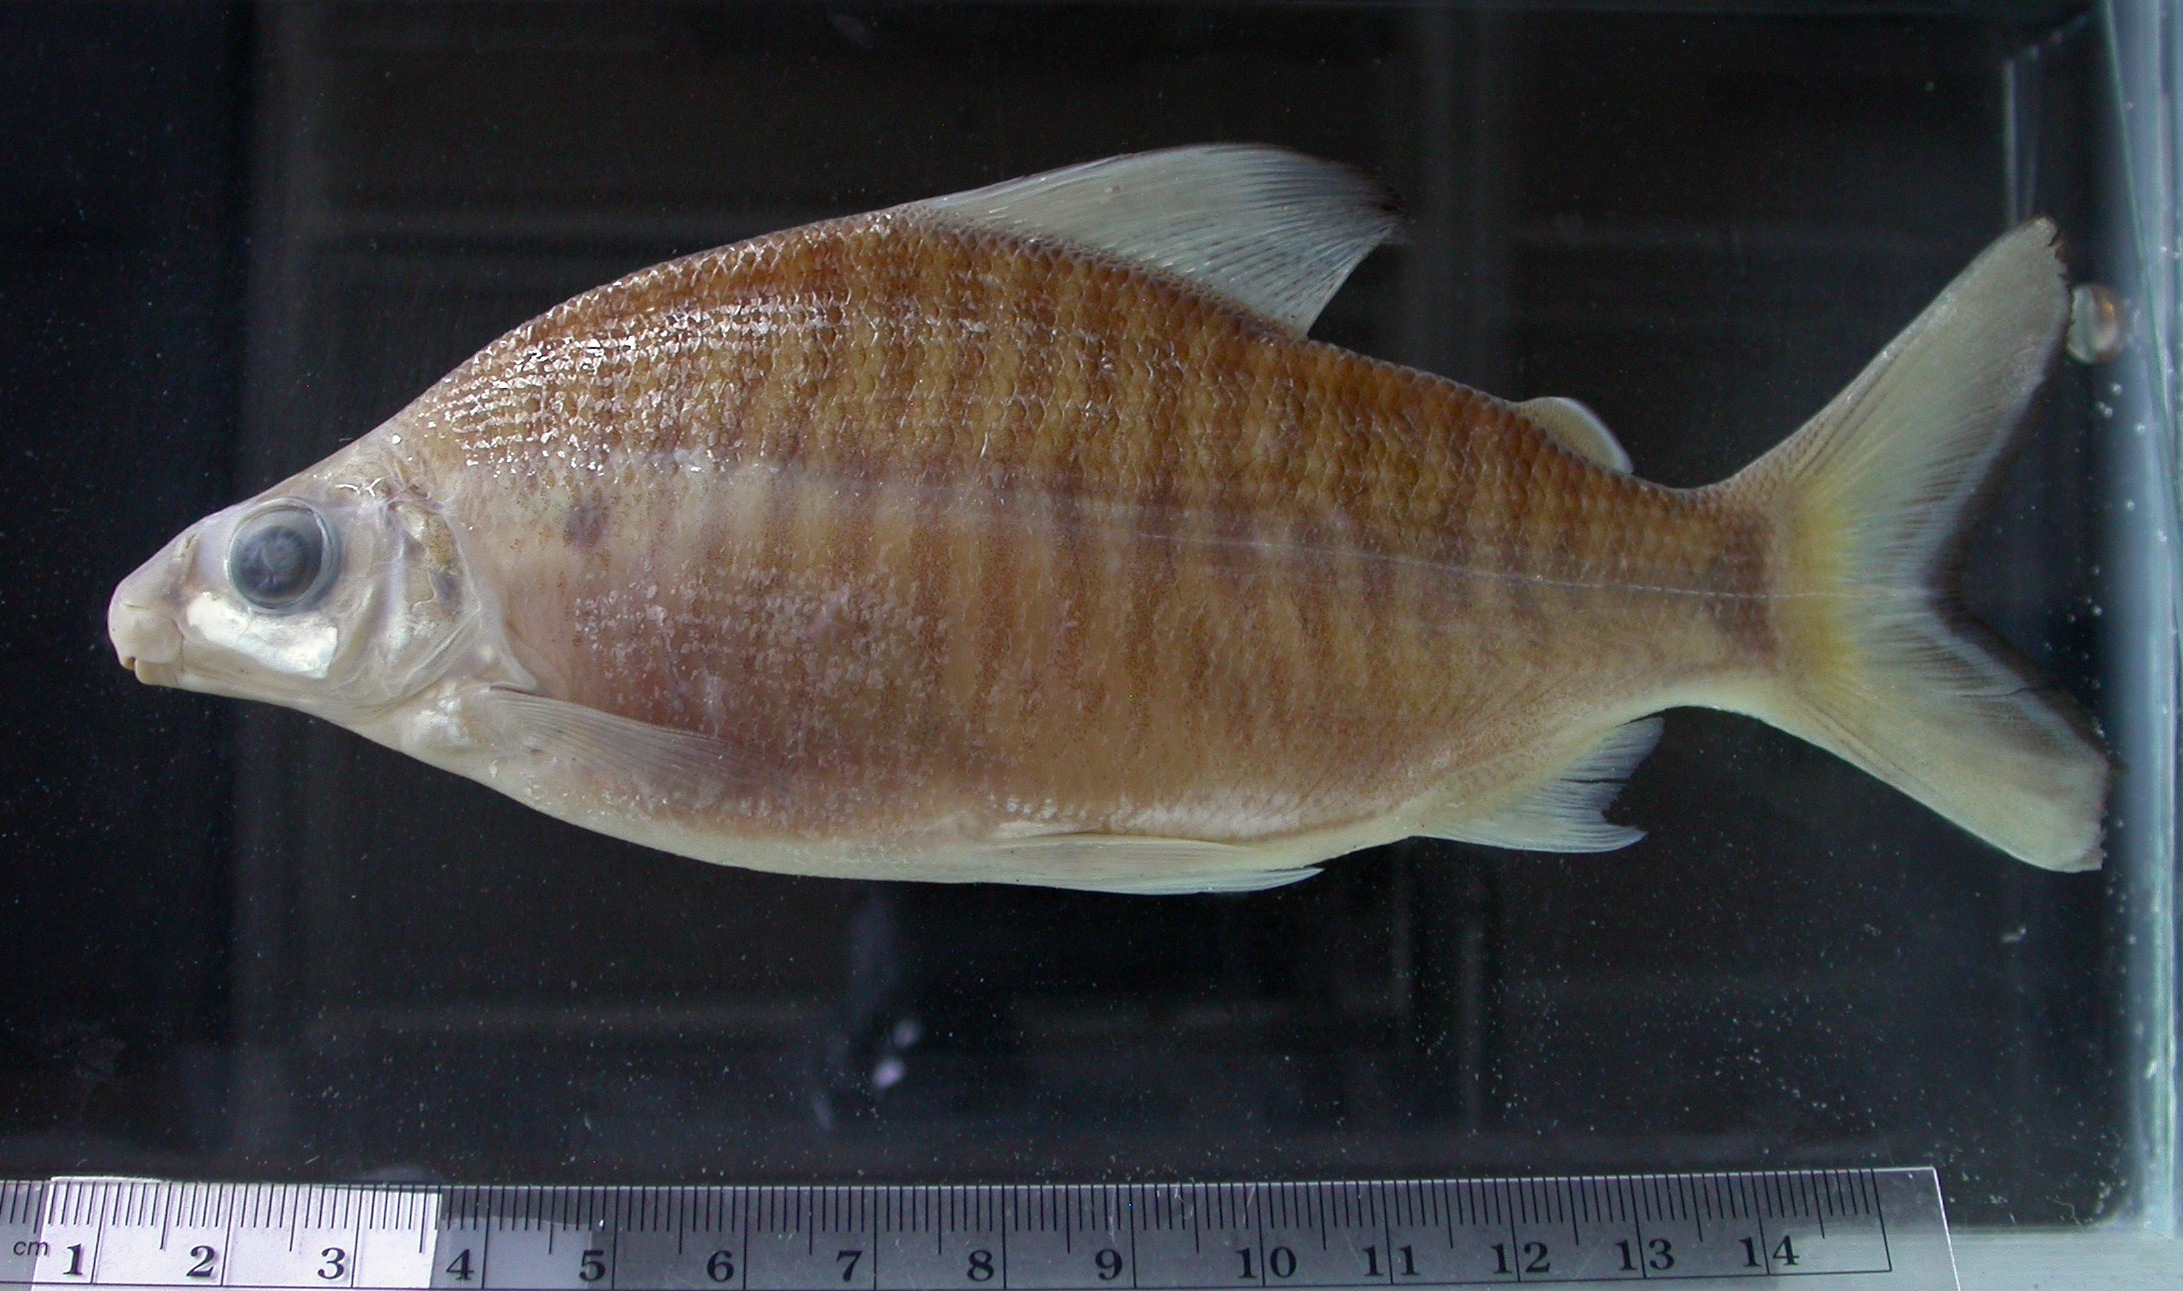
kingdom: Animalia
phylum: Chordata
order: Characiformes
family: Distichodontidae
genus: Distichodus
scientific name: Distichodus
